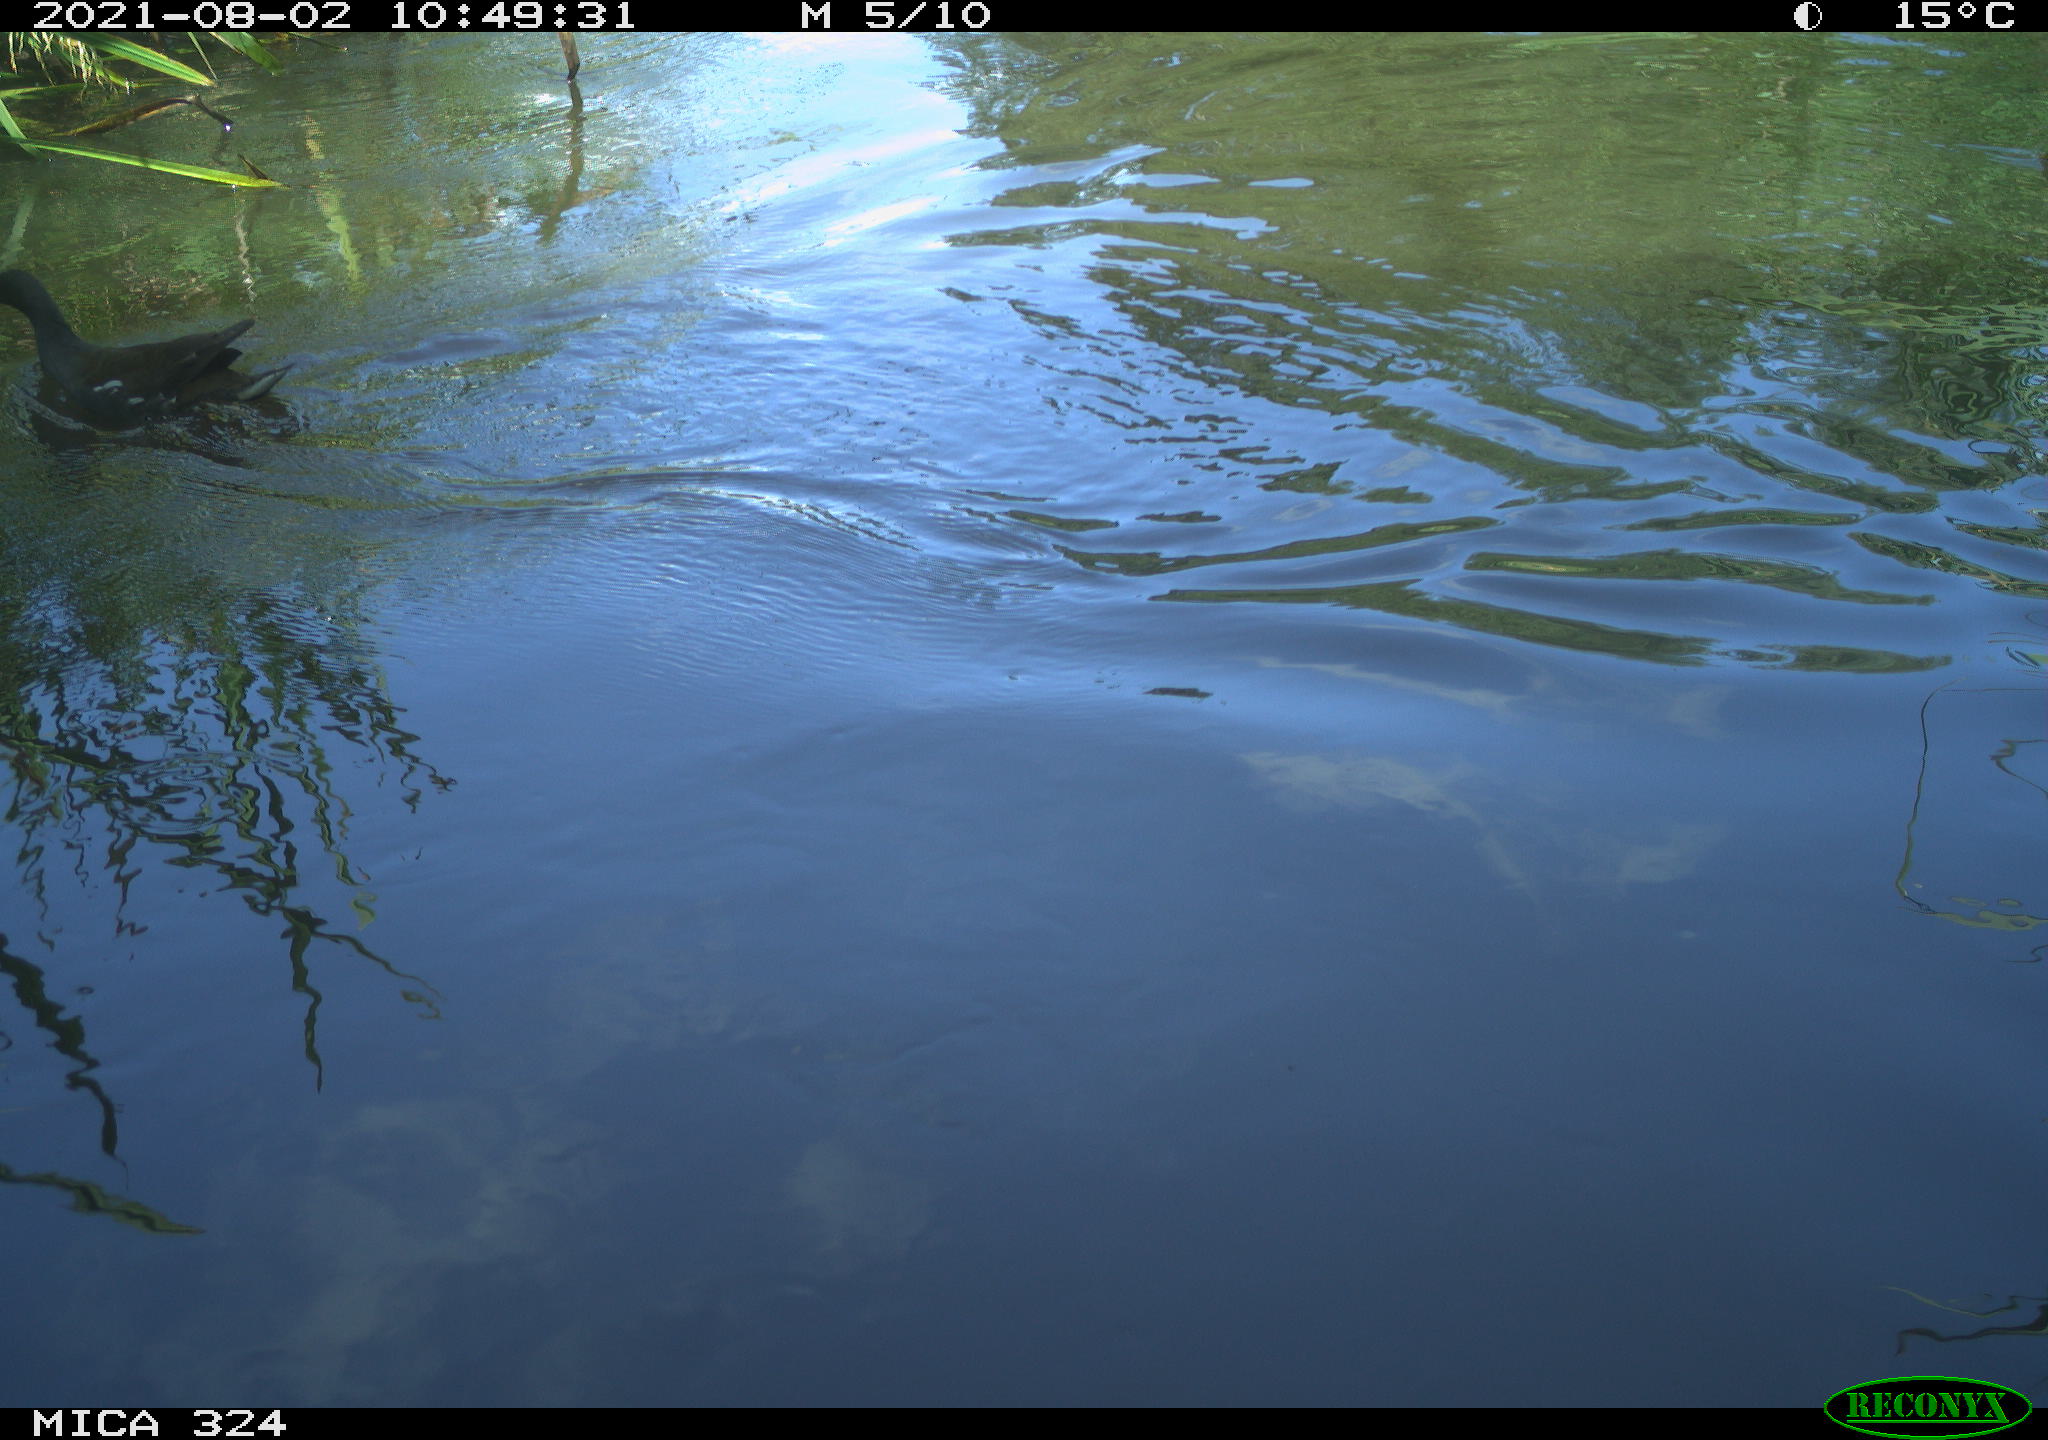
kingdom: Animalia
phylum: Chordata
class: Aves
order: Gruiformes
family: Rallidae
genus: Gallinula
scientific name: Gallinula chloropus
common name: Common moorhen
